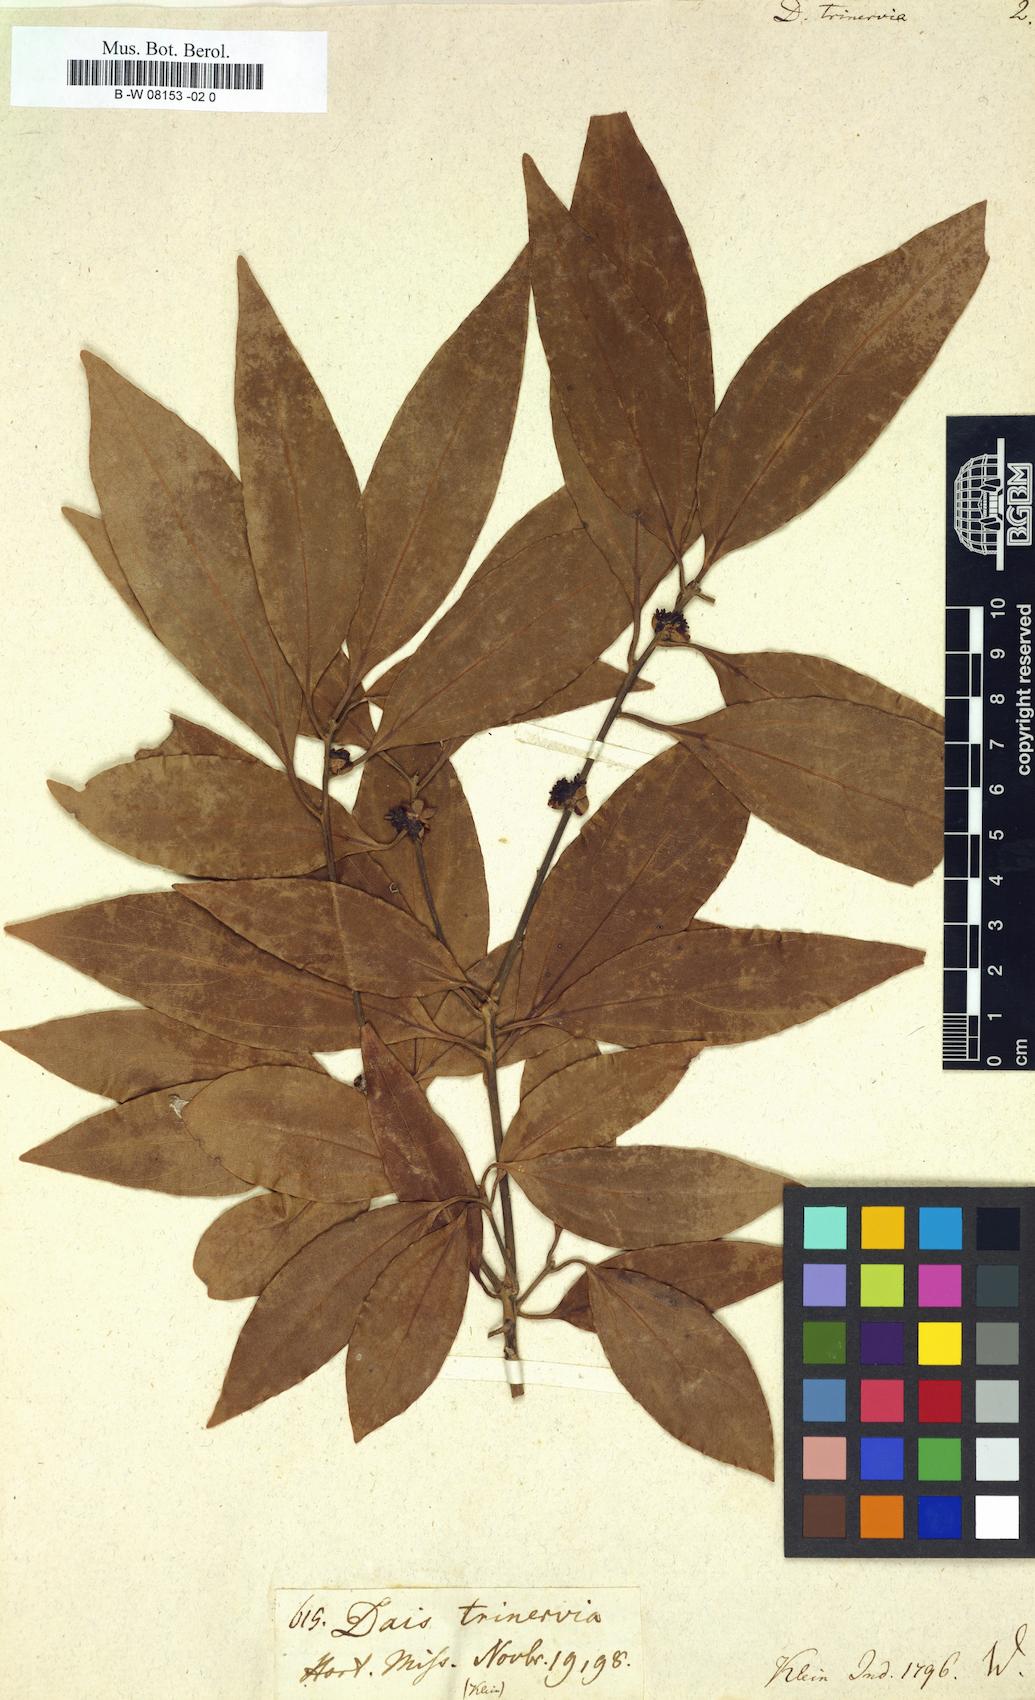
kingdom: Plantae
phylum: Tracheophyta
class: Magnoliopsida
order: Malvales
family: Thymelaeaceae
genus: Dais
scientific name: Dais
